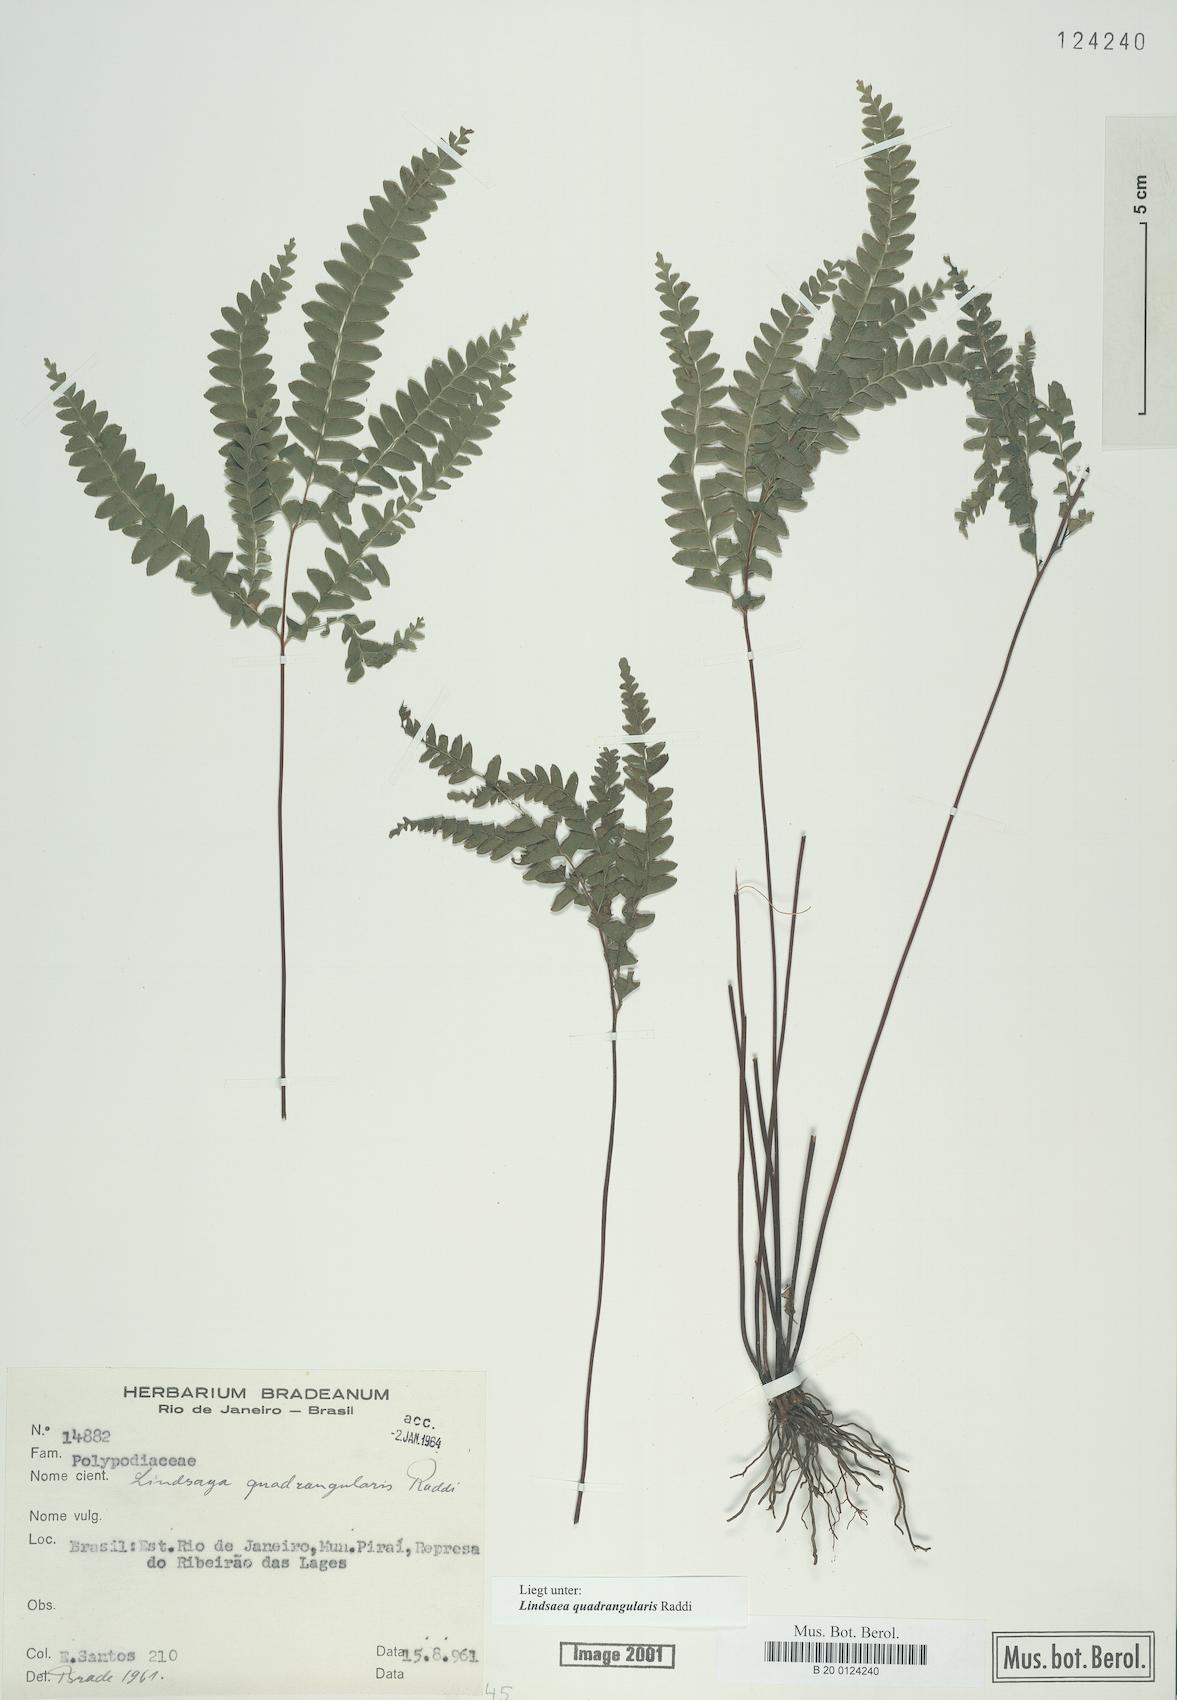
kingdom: Plantae
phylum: Tracheophyta
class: Polypodiopsida
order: Polypodiales
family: Lindsaeaceae
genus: Lindsaea
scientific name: Lindsaea quadrangularis
